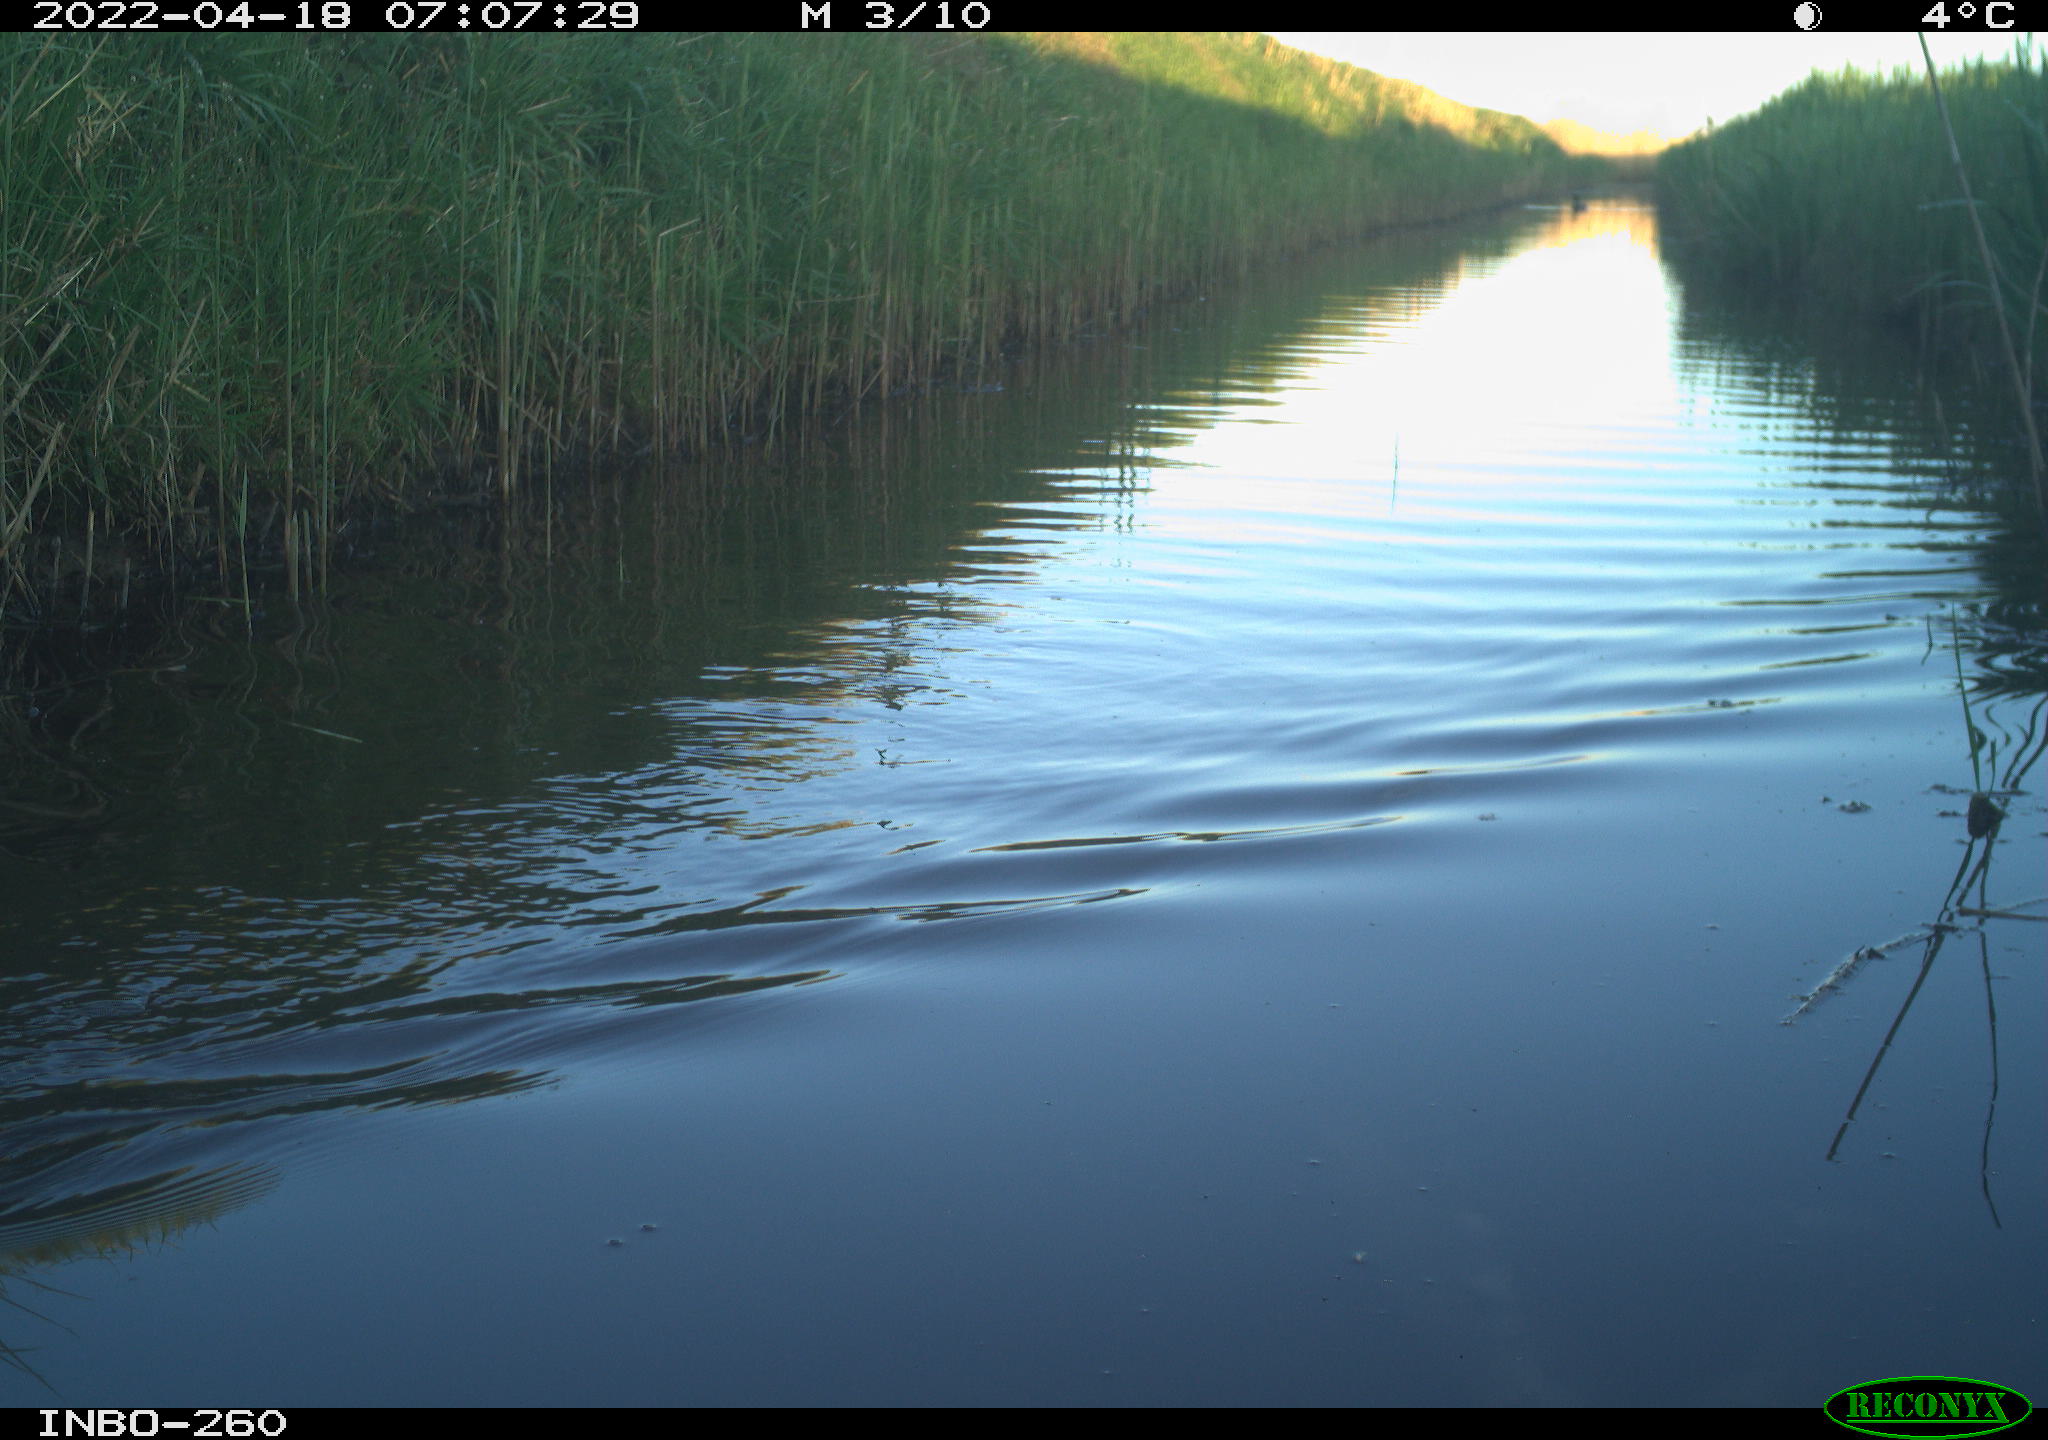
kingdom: Animalia
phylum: Chordata
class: Aves
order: Gruiformes
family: Rallidae
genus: Fulica
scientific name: Fulica atra
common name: Eurasian coot
